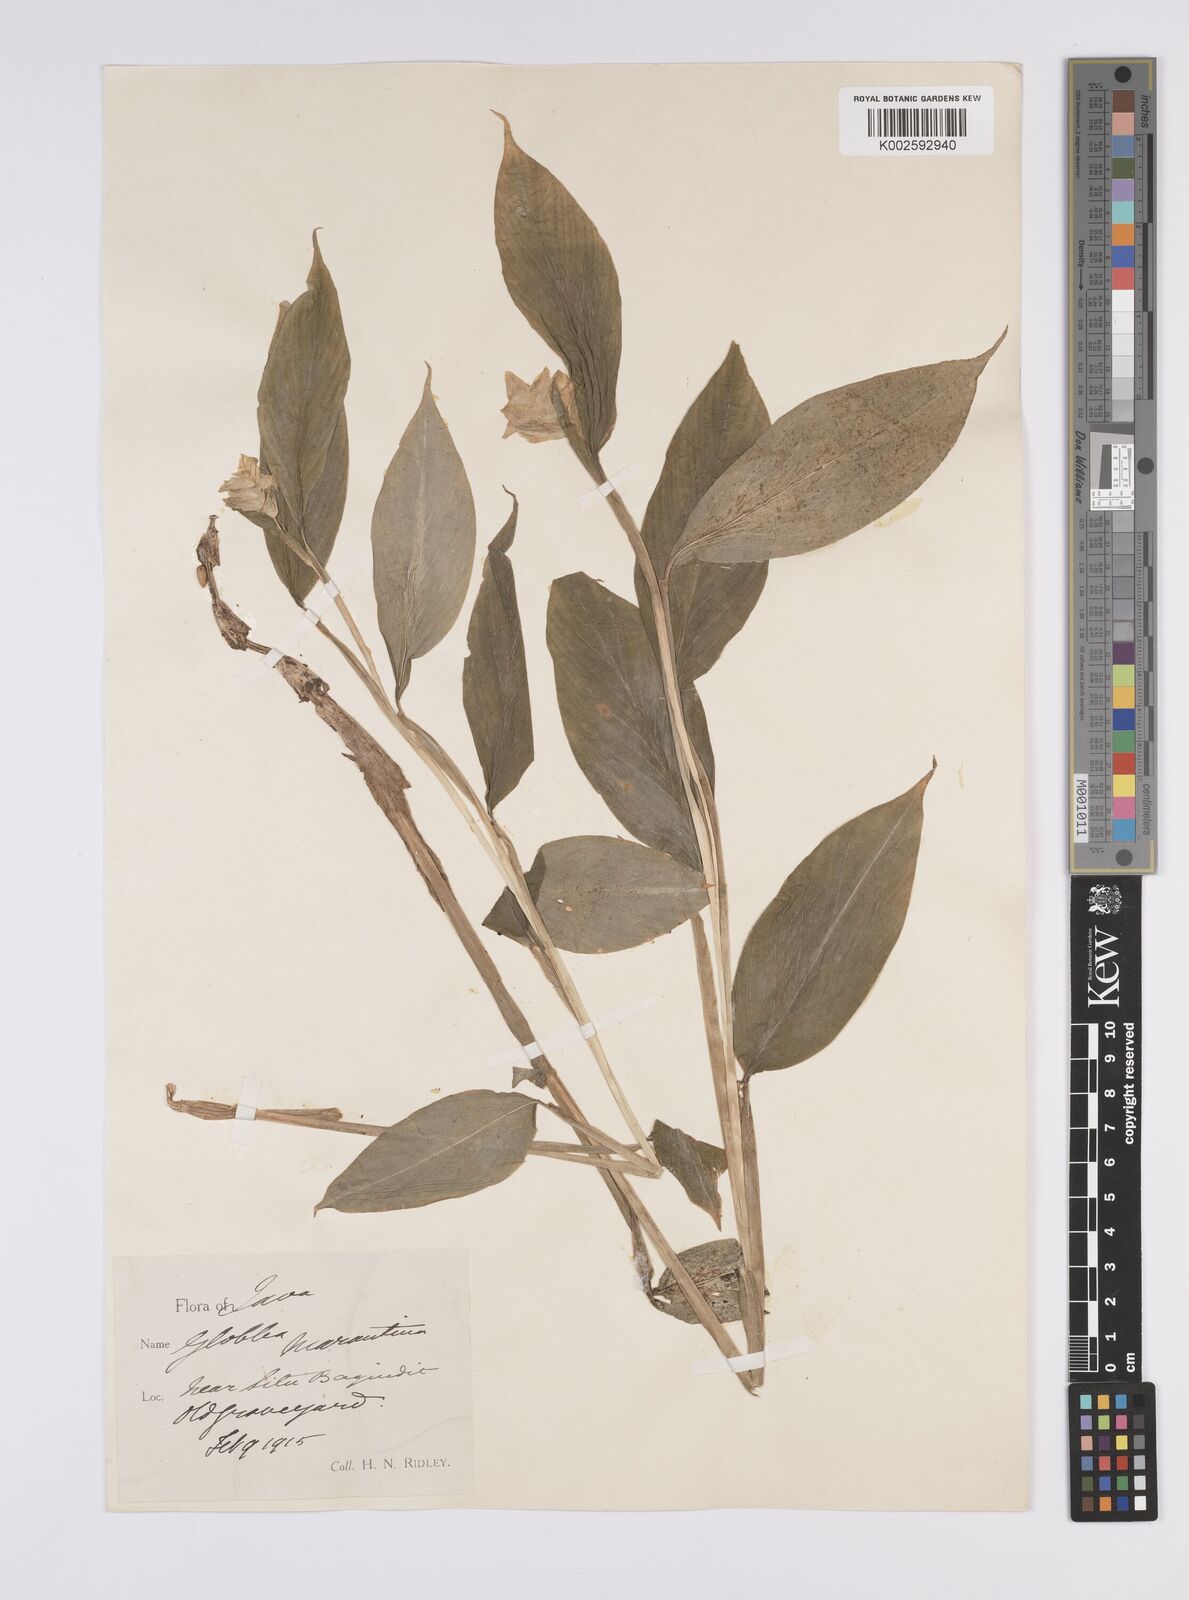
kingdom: Plantae
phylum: Tracheophyta
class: Liliopsida
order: Zingiberales
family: Zingiberaceae
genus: Globba
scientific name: Globba marantina
